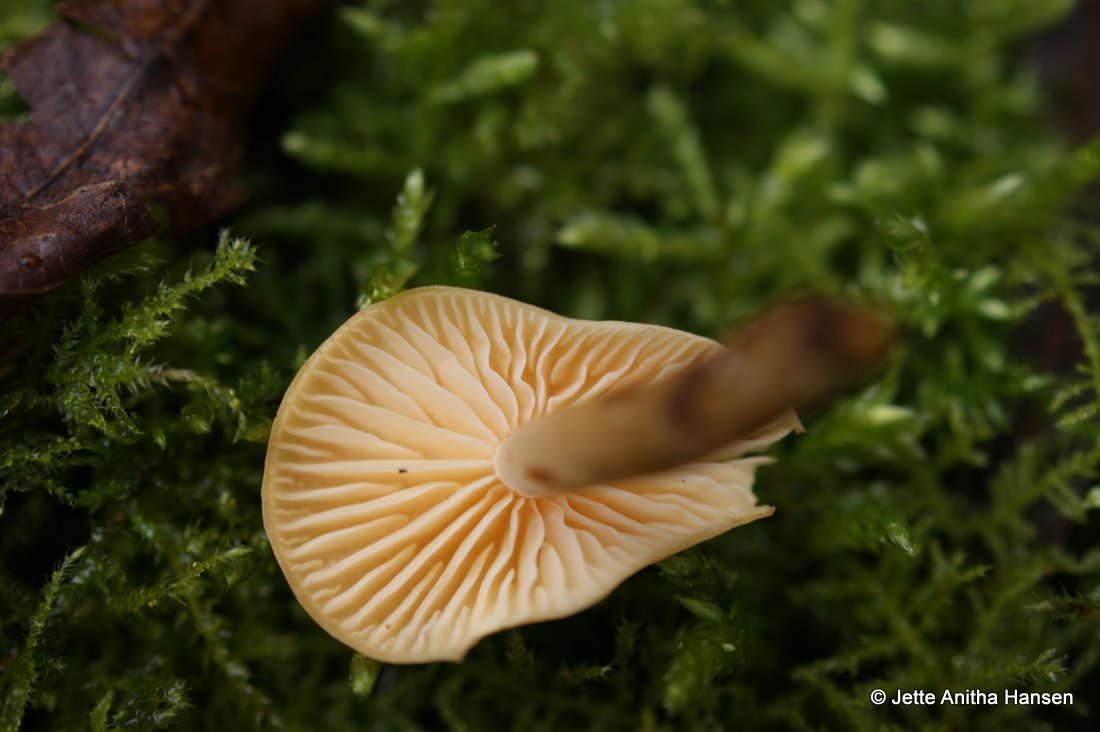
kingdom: Fungi
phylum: Basidiomycota
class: Agaricomycetes
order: Agaricales
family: Physalacriaceae
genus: Flammulina
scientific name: Flammulina velutipes
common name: gul fløjlsfod
